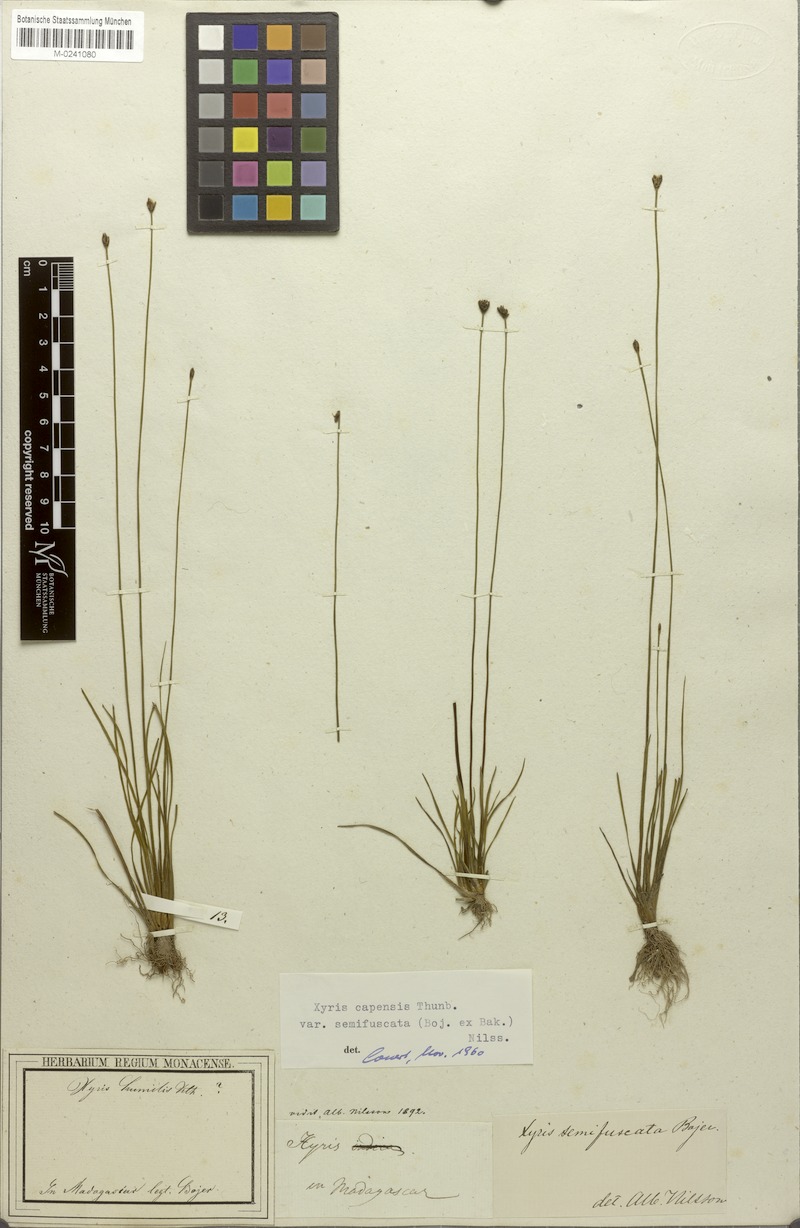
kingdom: Plantae
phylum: Tracheophyta
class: Liliopsida
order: Poales
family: Xyridaceae
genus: Xyris
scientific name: Xyris capensis
